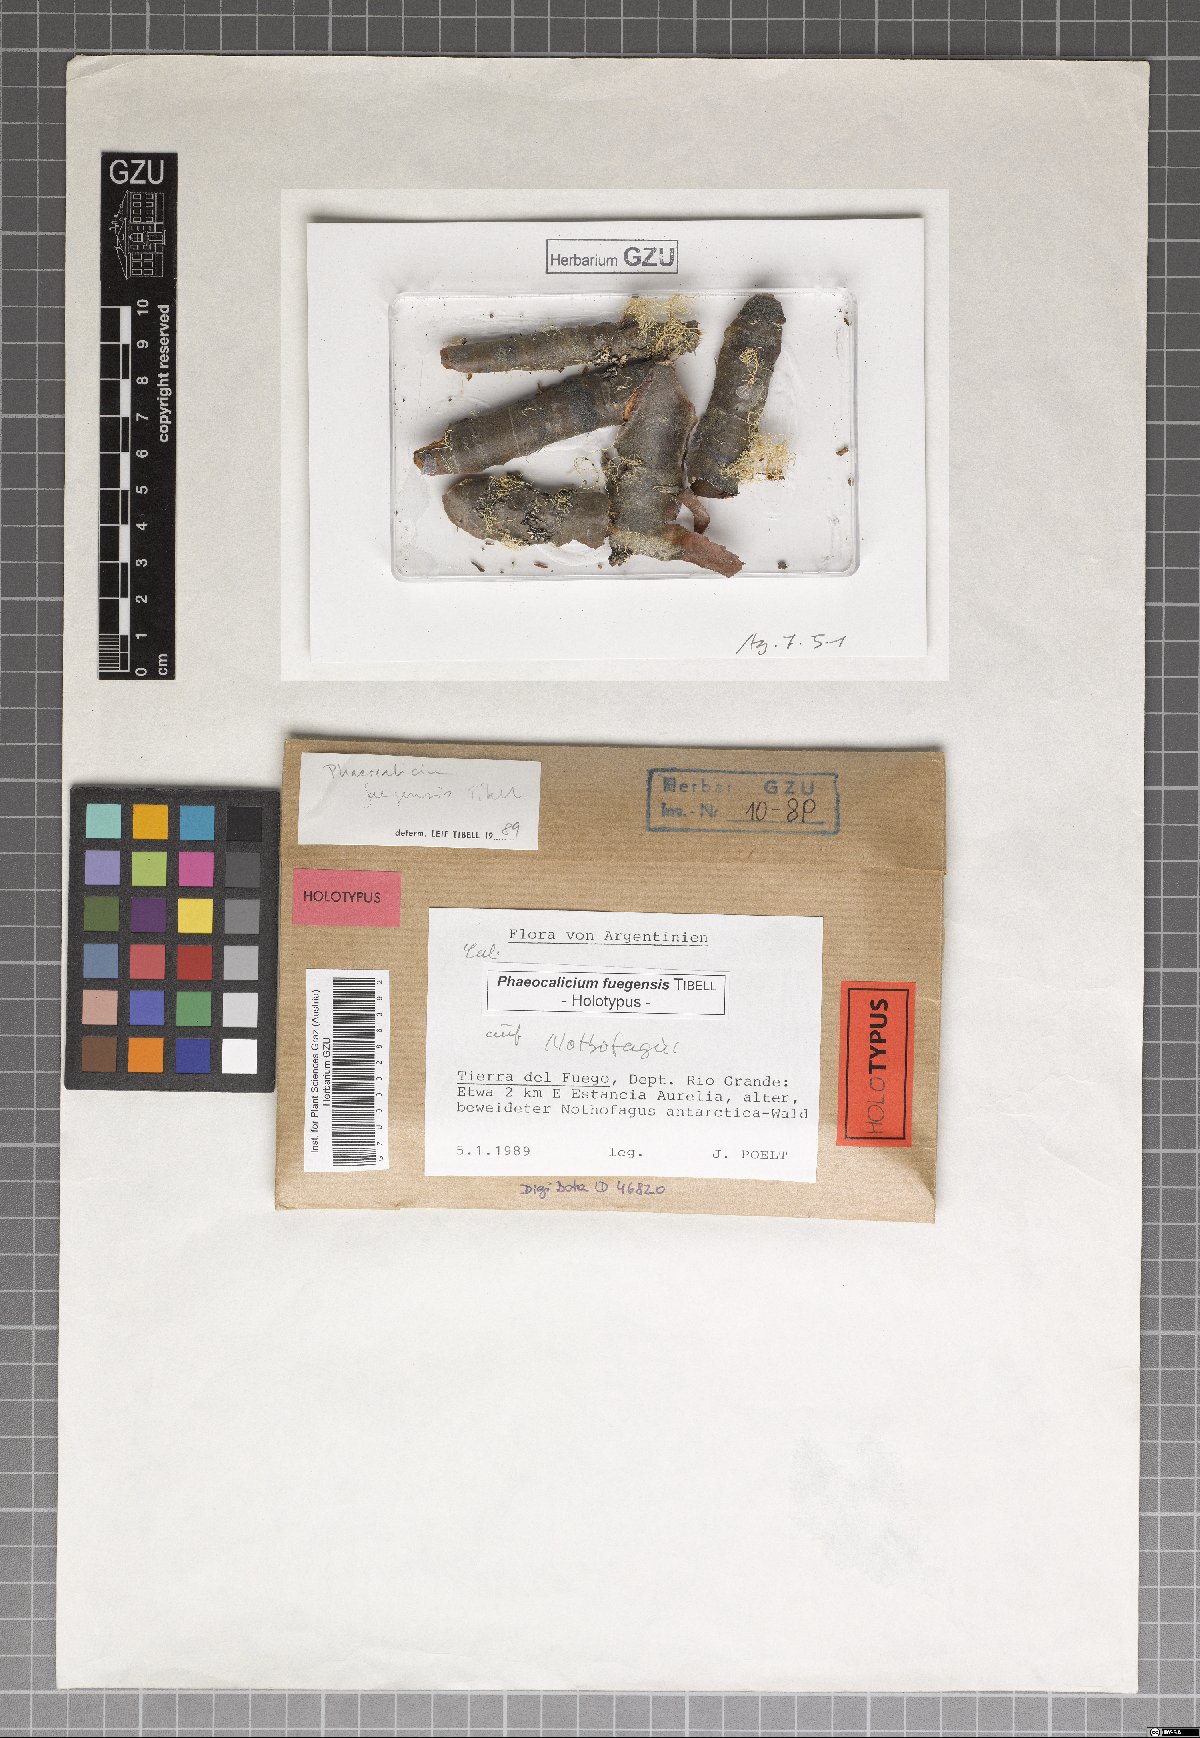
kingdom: Fungi
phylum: Ascomycota
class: Eurotiomycetes
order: Mycocaliciales
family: Mycocaliciaceae
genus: Phaeocalicium
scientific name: Phaeocalicium fuegense
